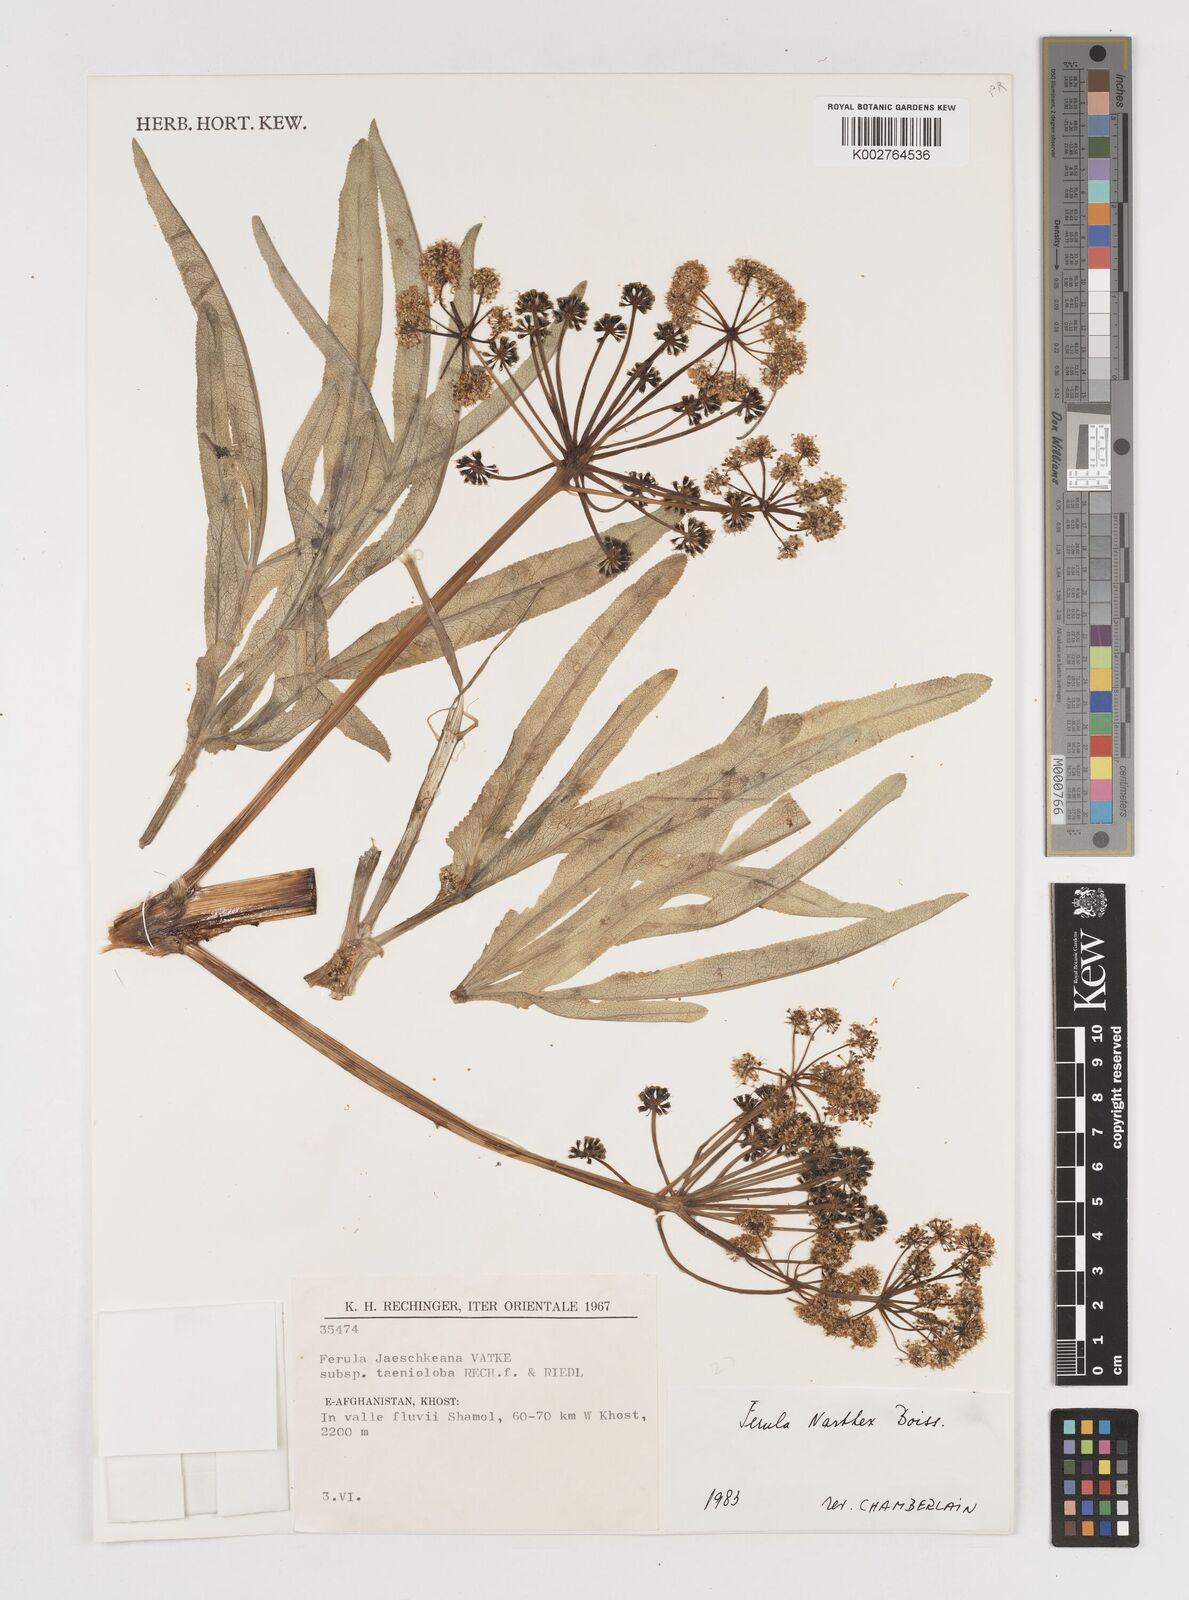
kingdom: Plantae
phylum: Tracheophyta
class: Magnoliopsida
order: Apiales
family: Apiaceae
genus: Ferula
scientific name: Ferula narthex
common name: Hing asafetida
